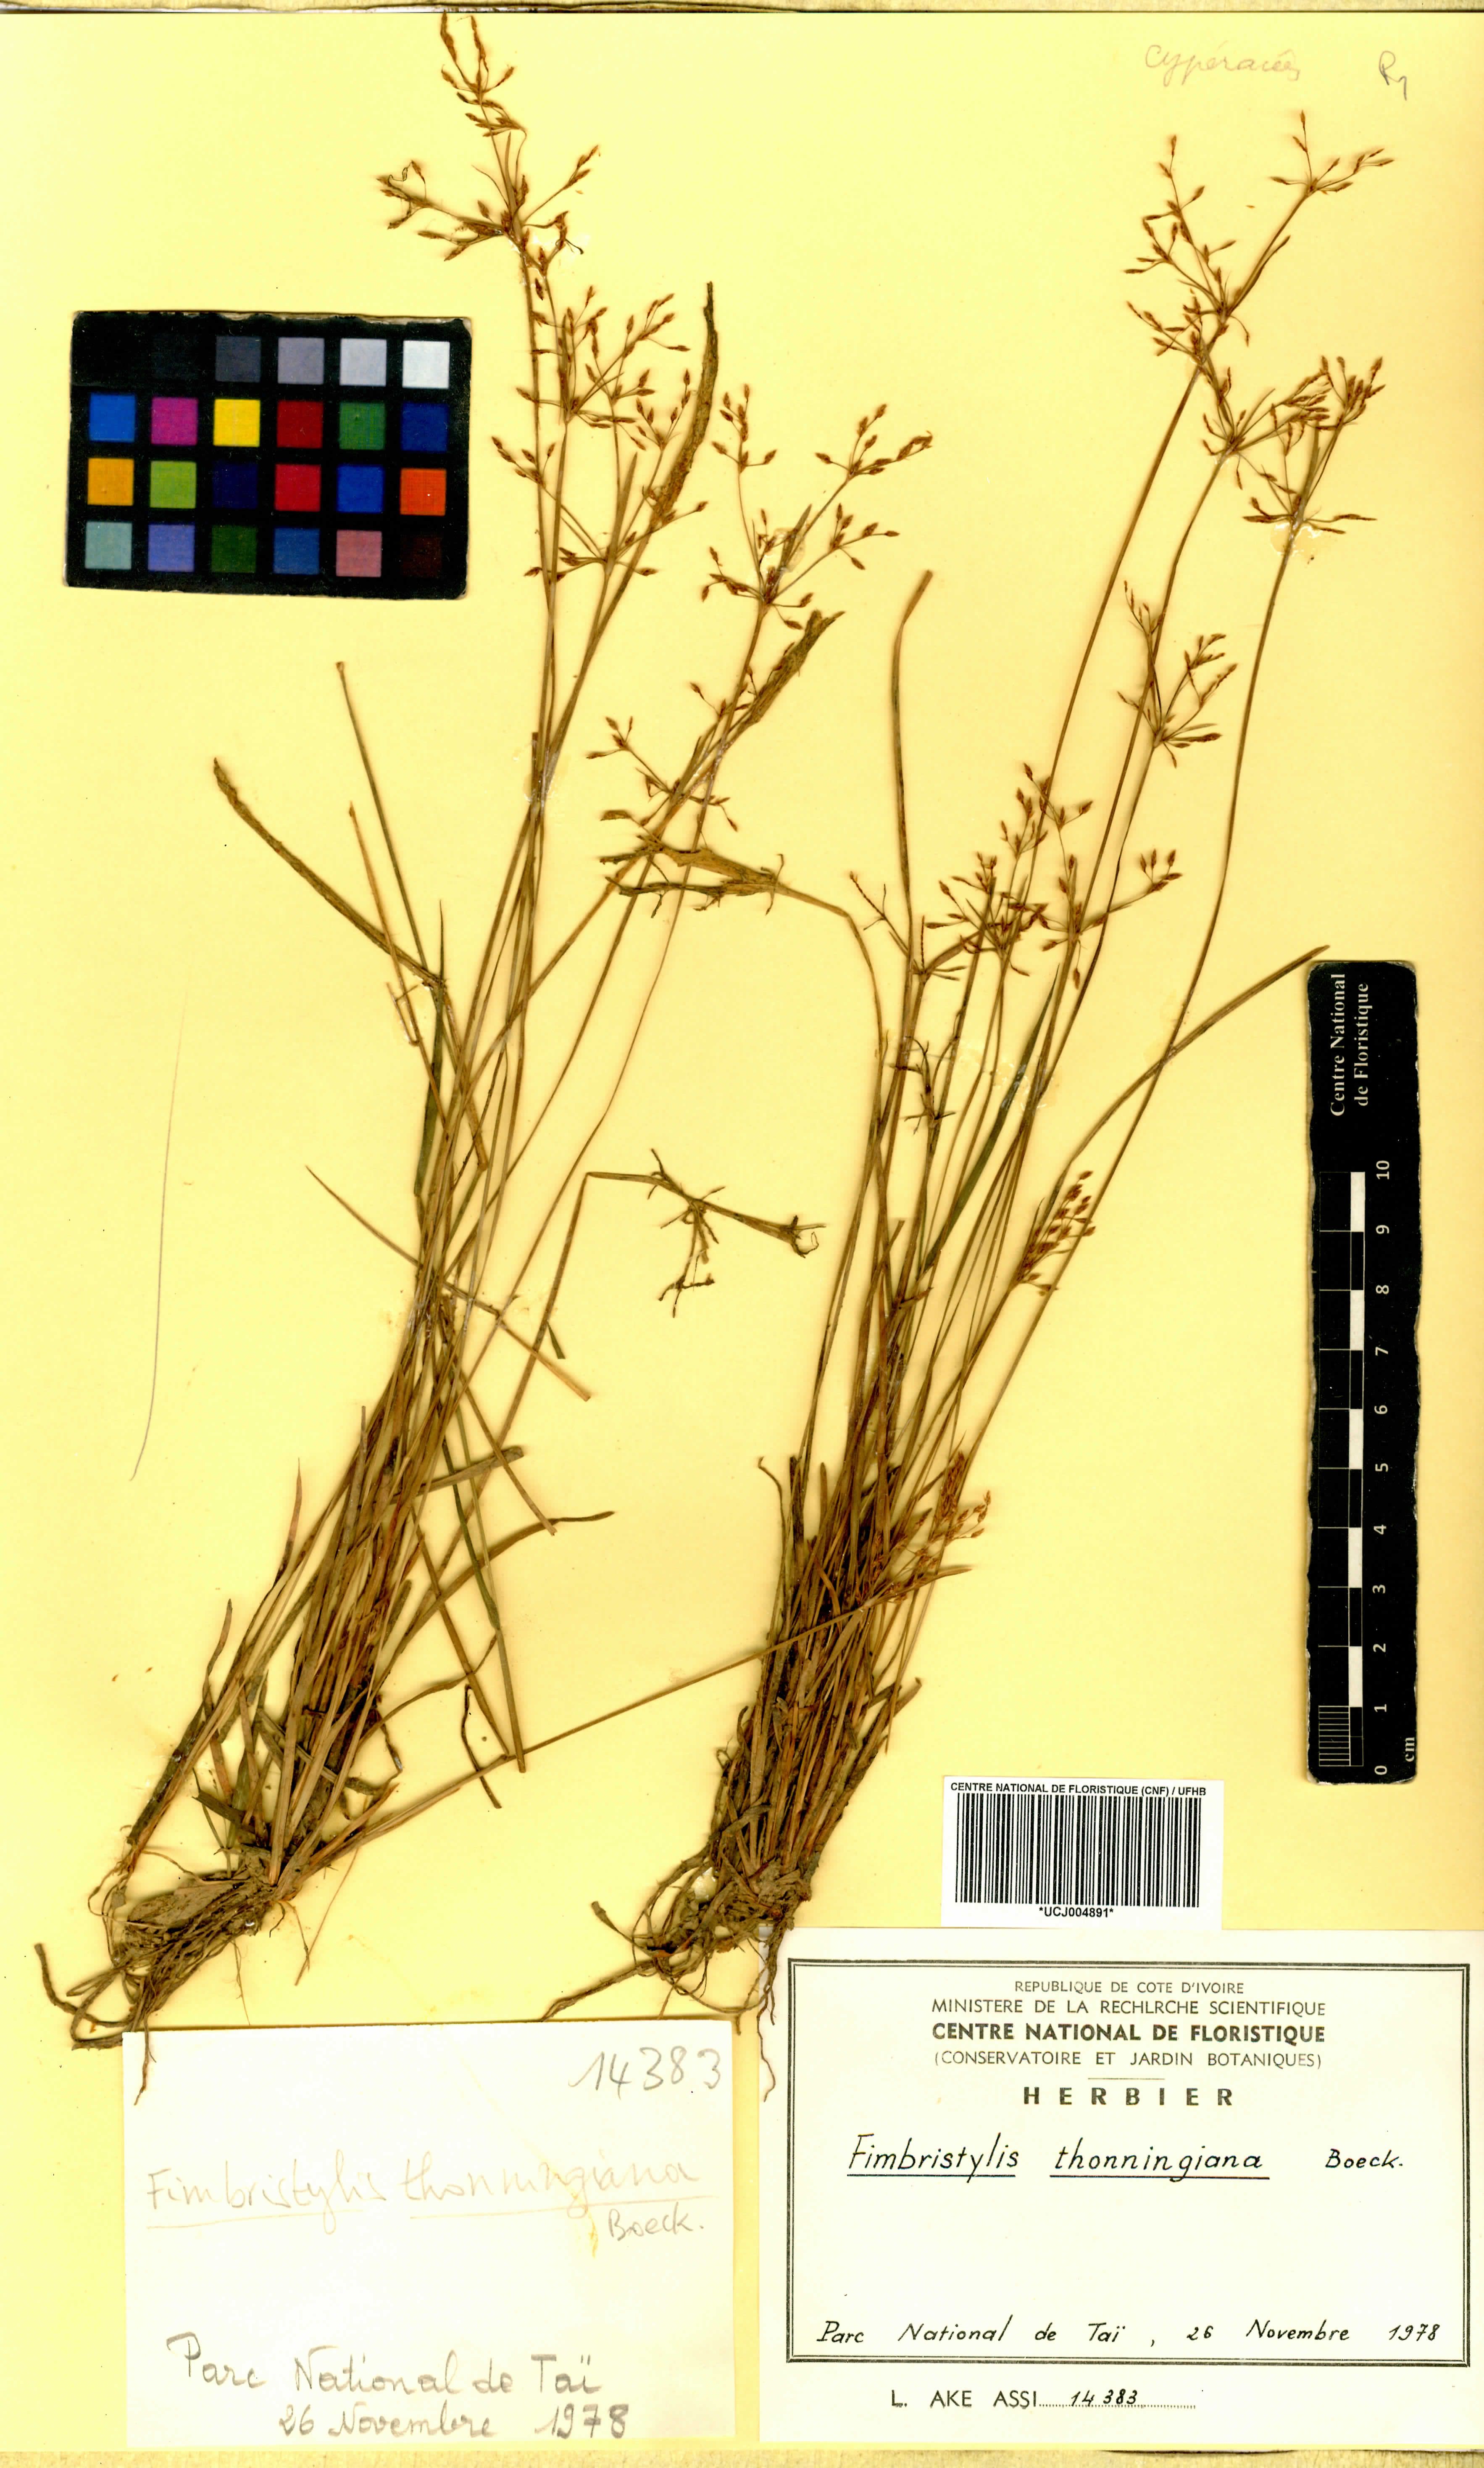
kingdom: Plantae
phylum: Tracheophyta
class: Liliopsida
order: Poales
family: Cyperaceae
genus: Fimbristylis
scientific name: Fimbristylis microcarya
